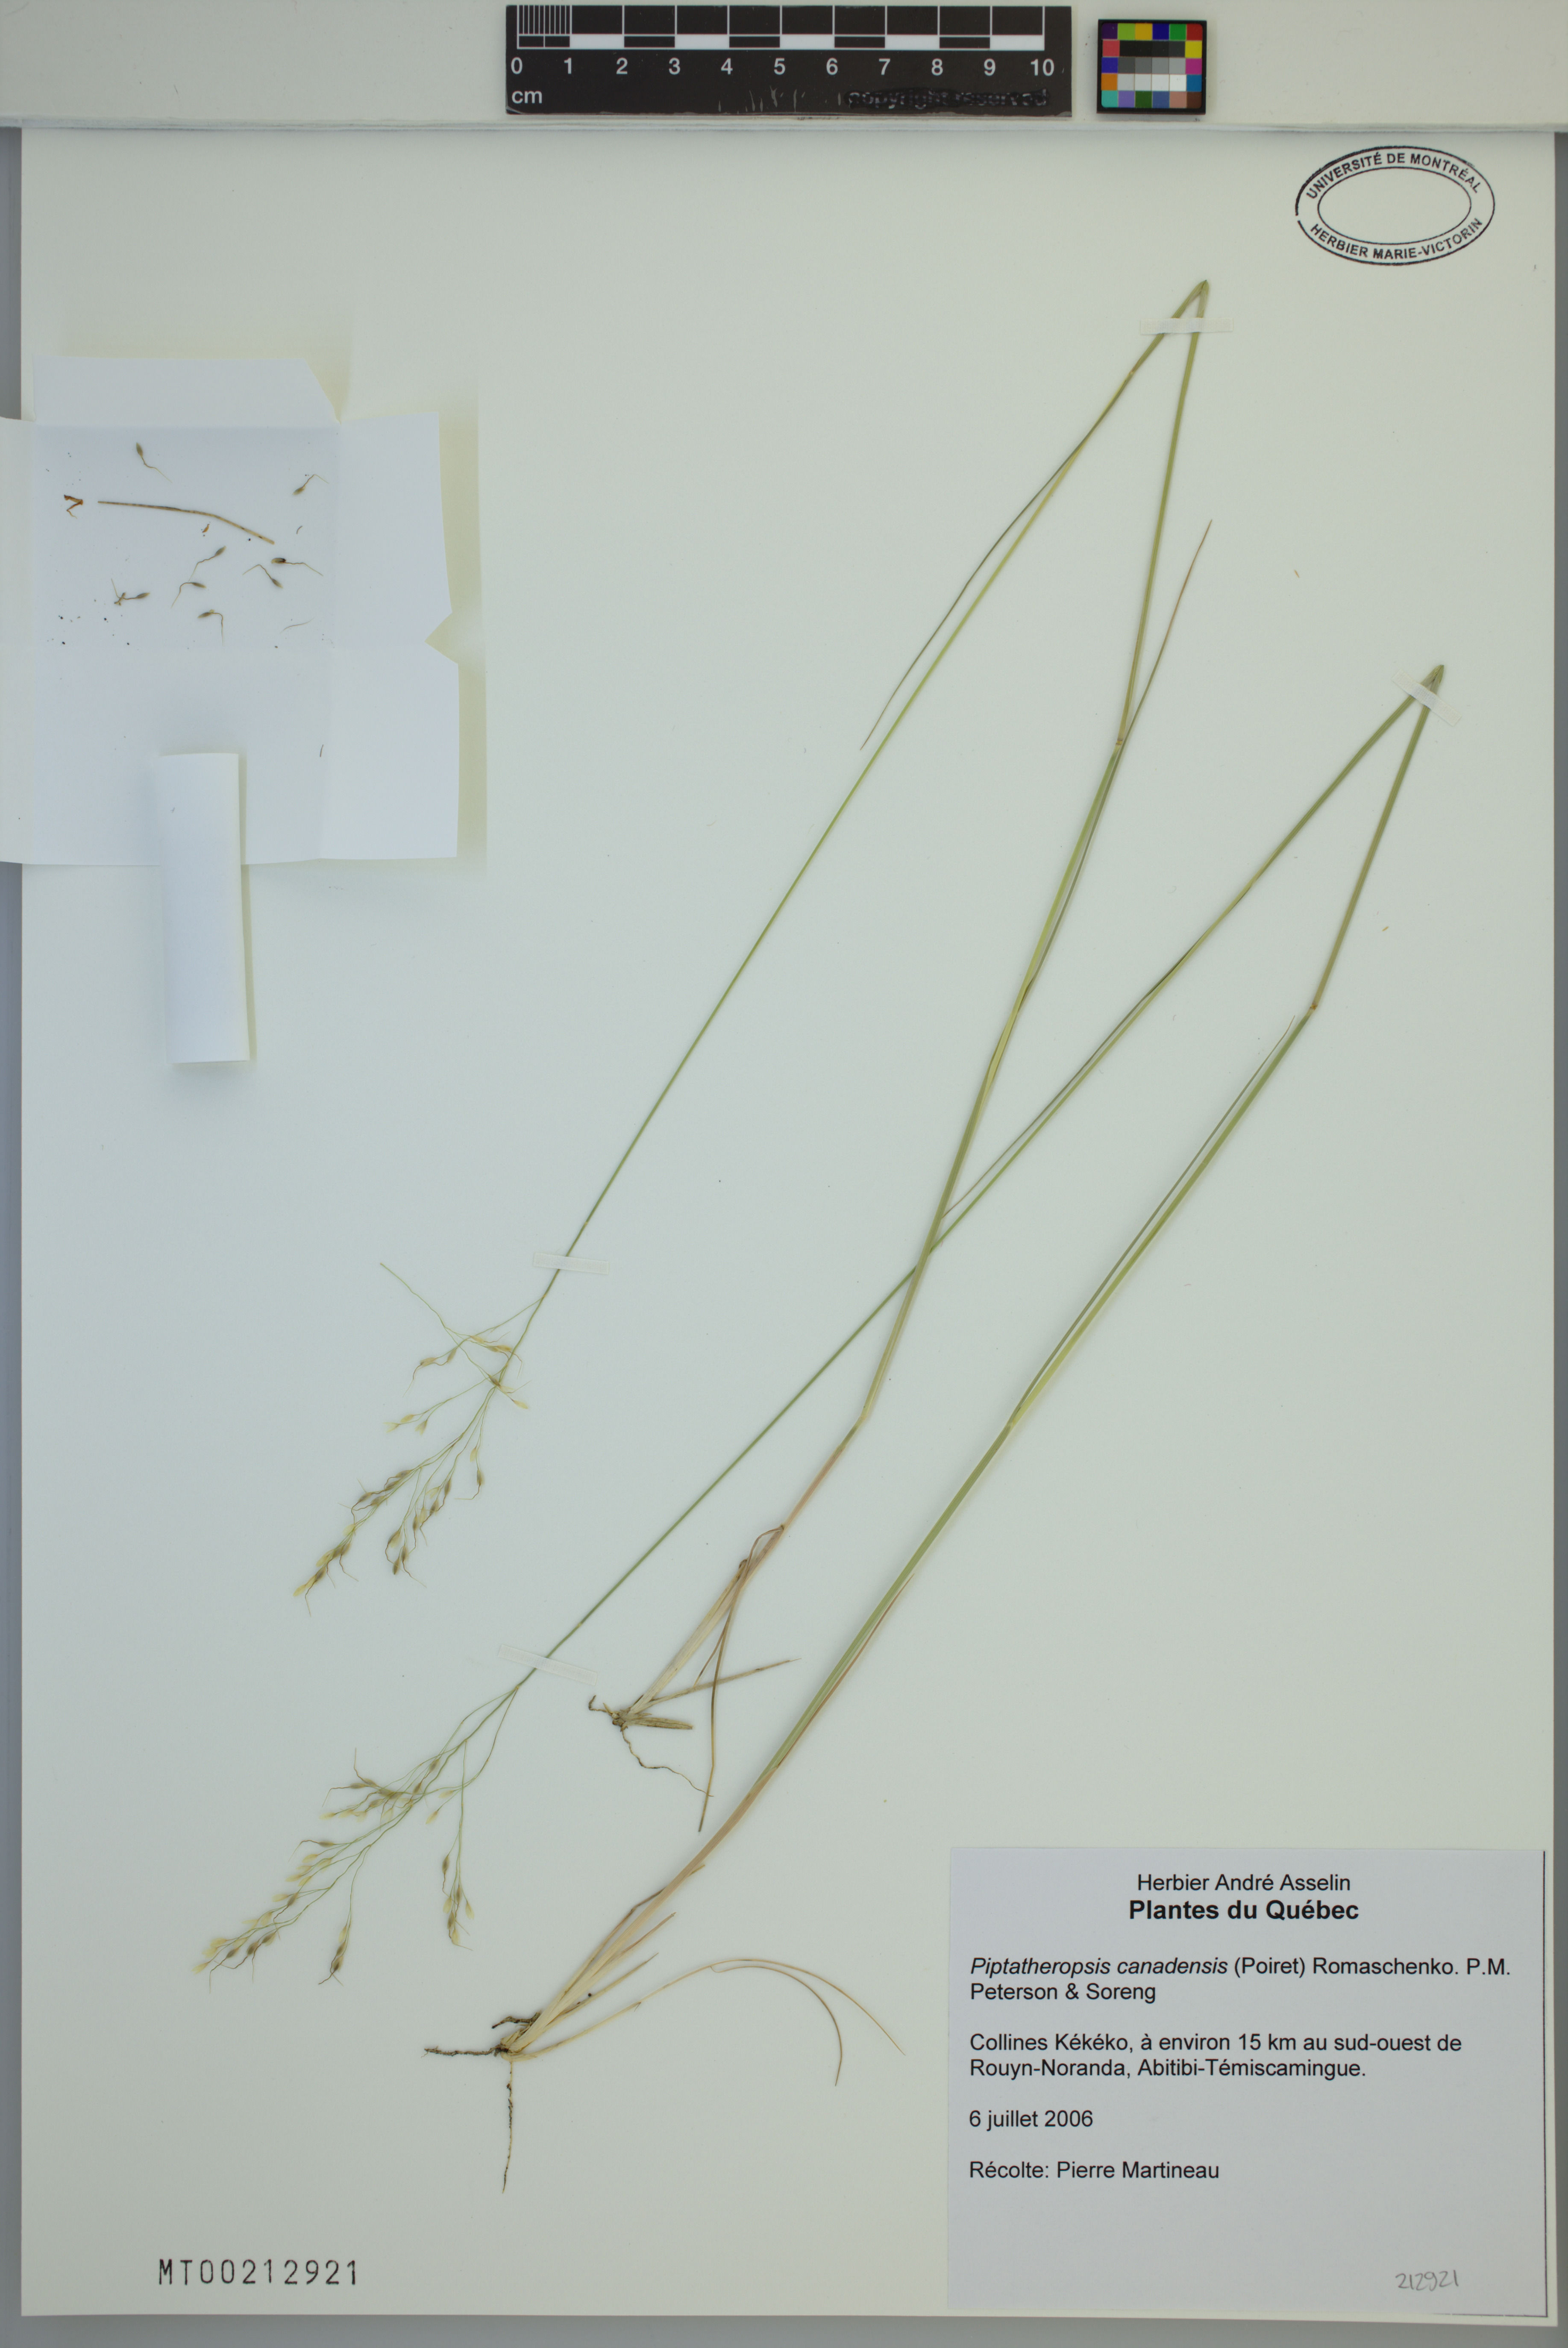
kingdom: Plantae
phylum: Tracheophyta
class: Liliopsida
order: Poales
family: Poaceae
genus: Piptatheropsis
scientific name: Piptatheropsis canadensis
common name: Canada mountain ricegrass
